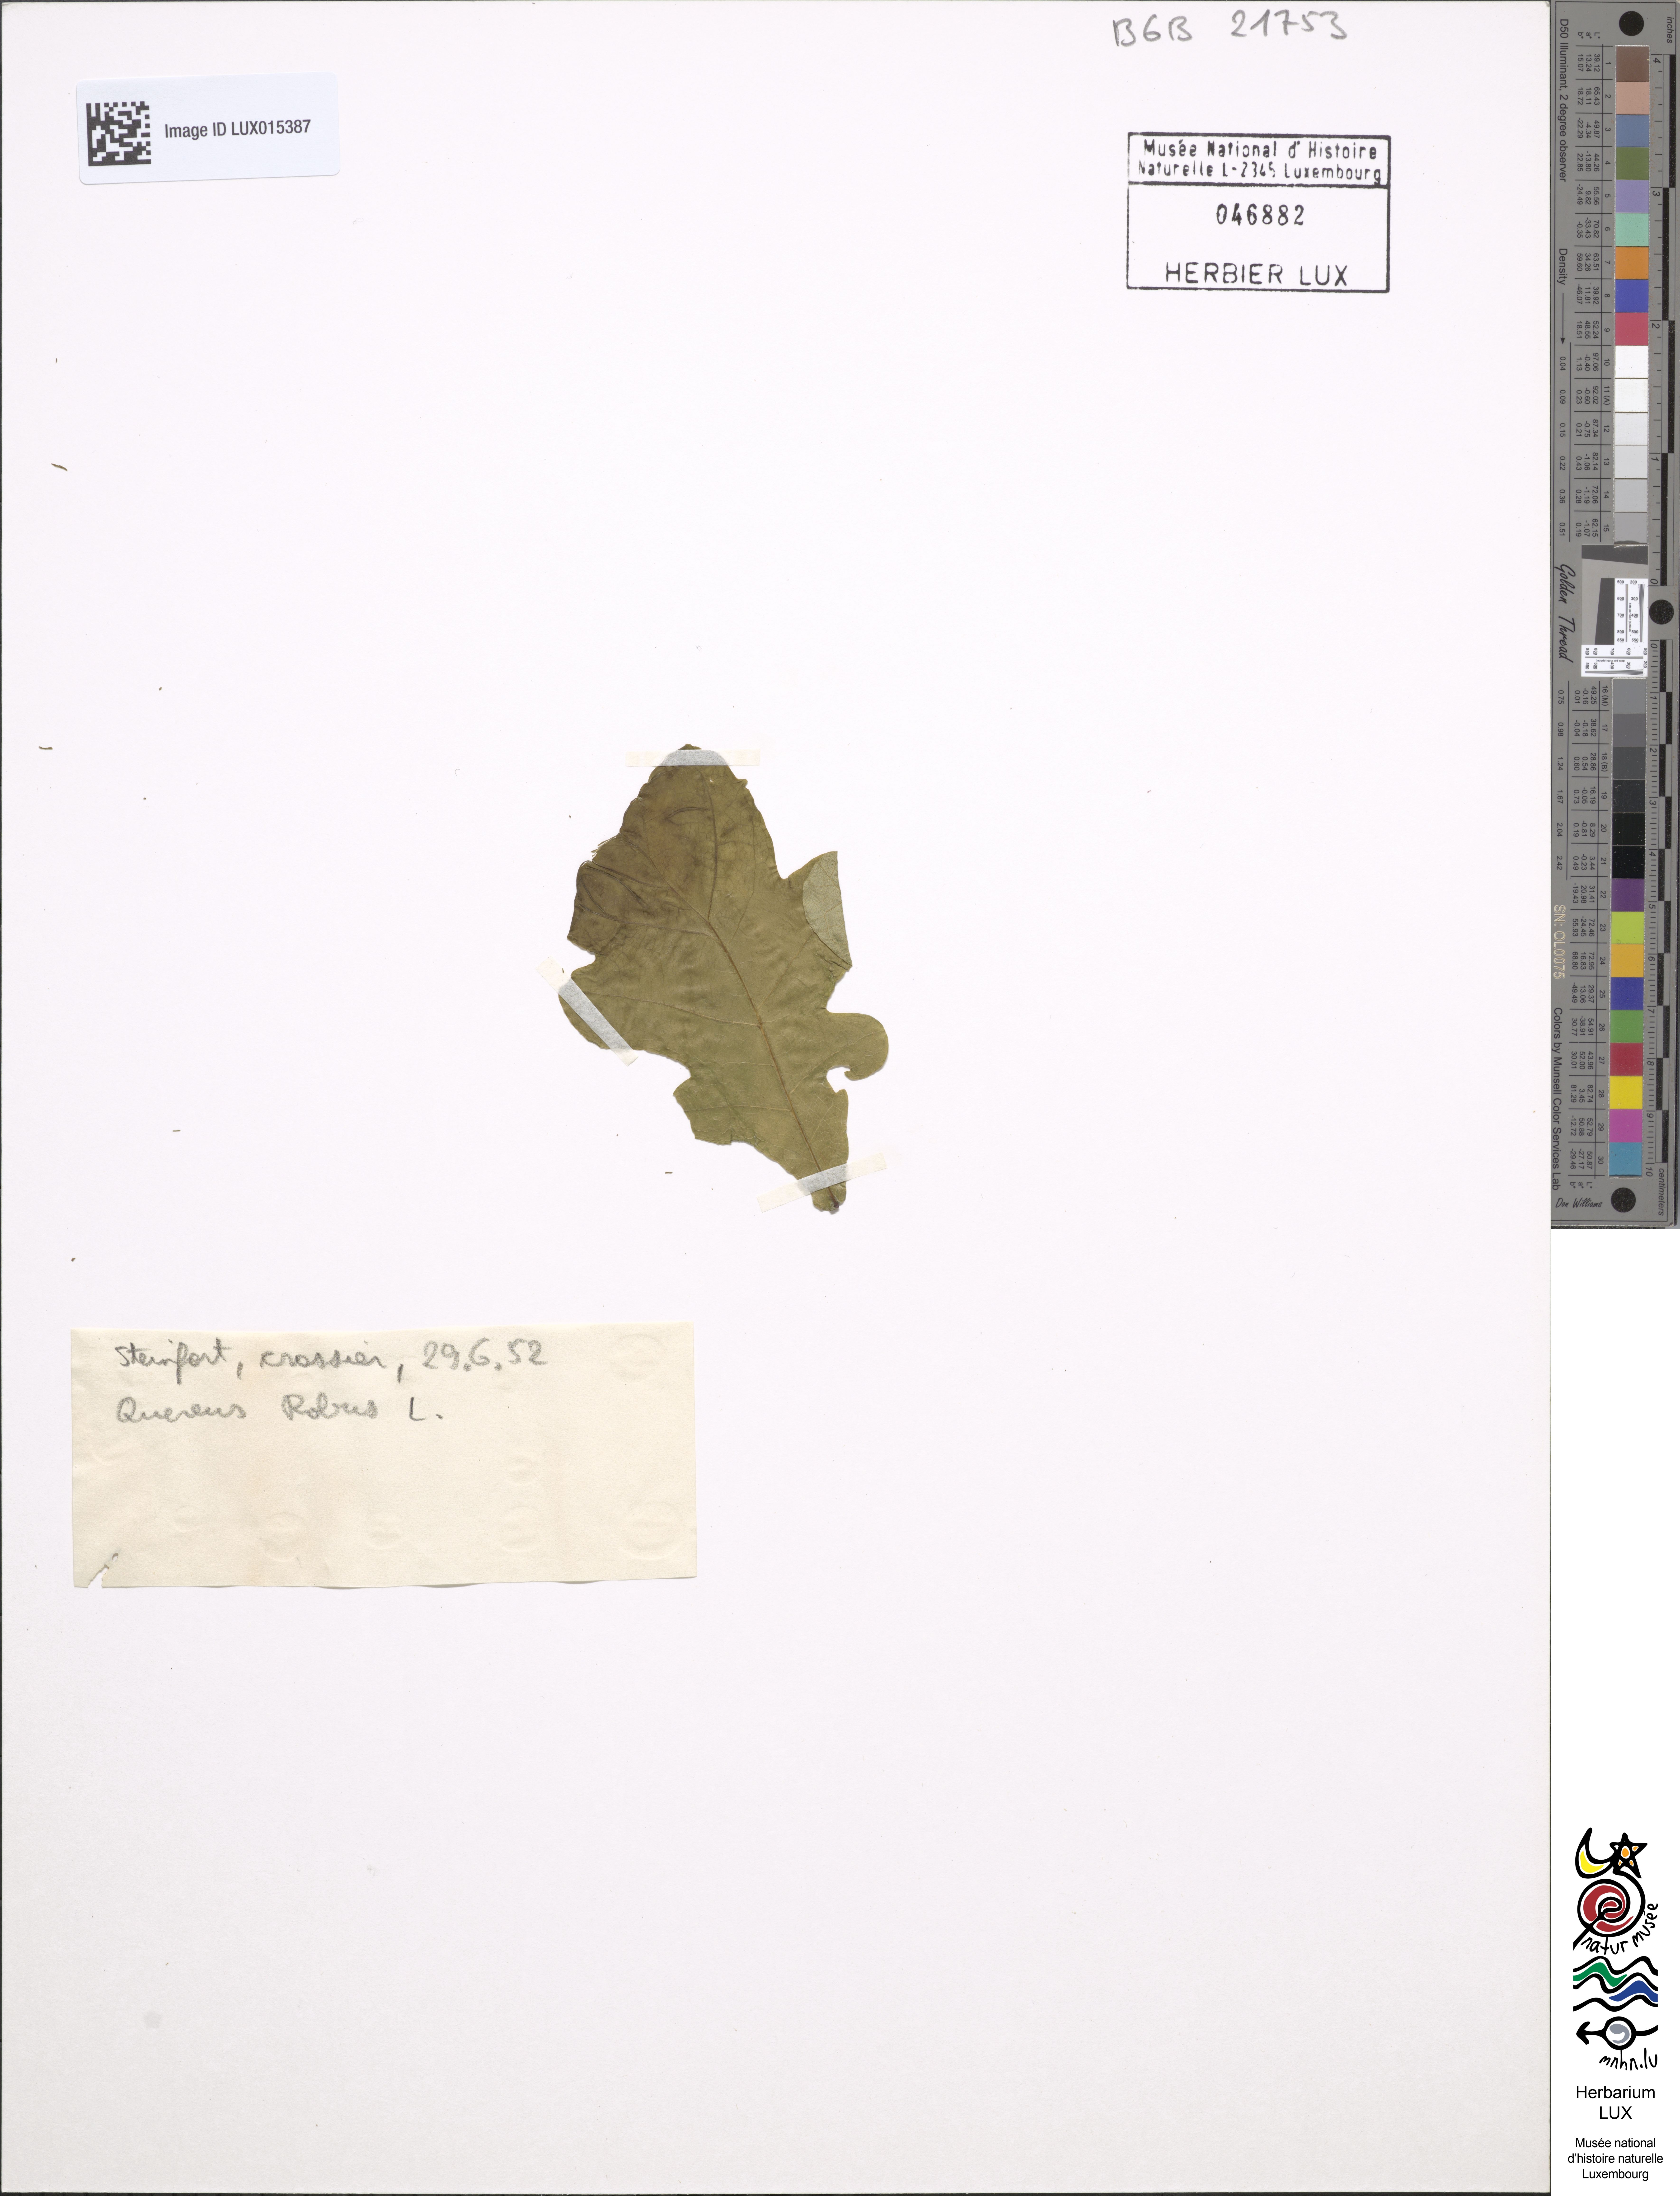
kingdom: Plantae
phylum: Tracheophyta
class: Magnoliopsida
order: Fagales
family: Fagaceae
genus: Quercus
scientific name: Quercus robur
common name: Pedunculate oak
